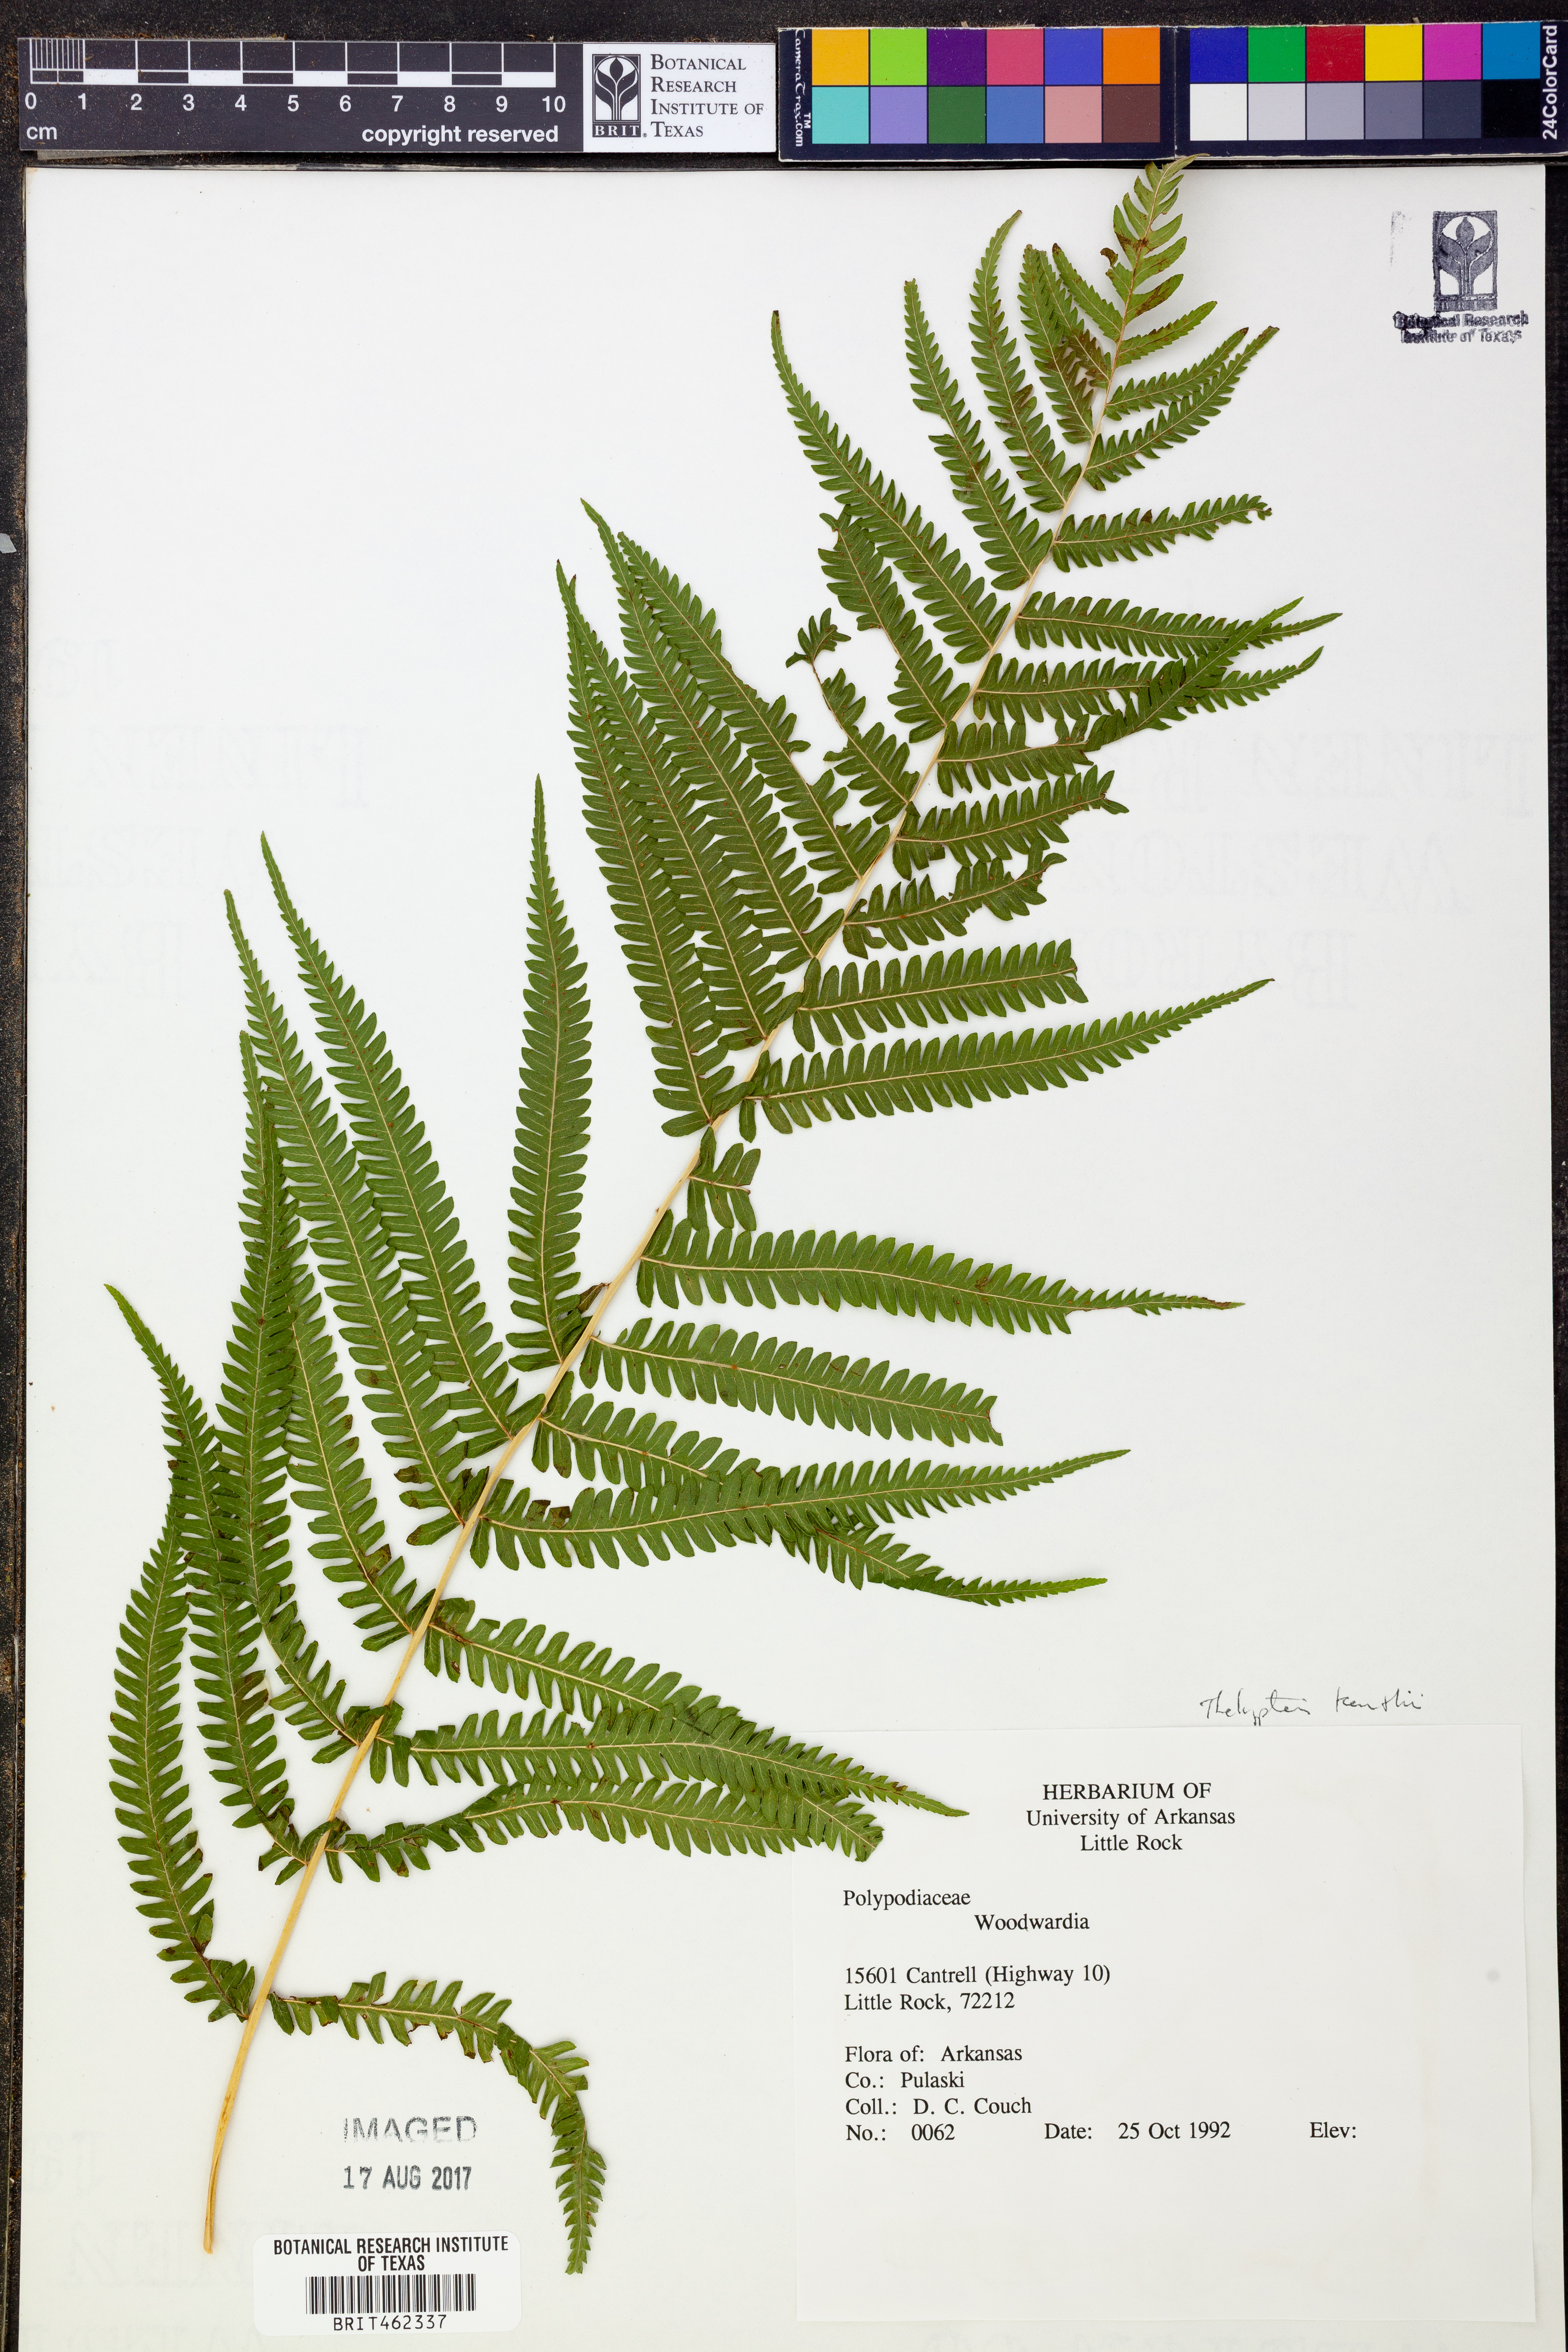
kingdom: Plantae
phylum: Tracheophyta
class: Polypodiopsida
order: Polypodiales
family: Thelypteridaceae
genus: Pelazoneuron
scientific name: Pelazoneuron kunthii
